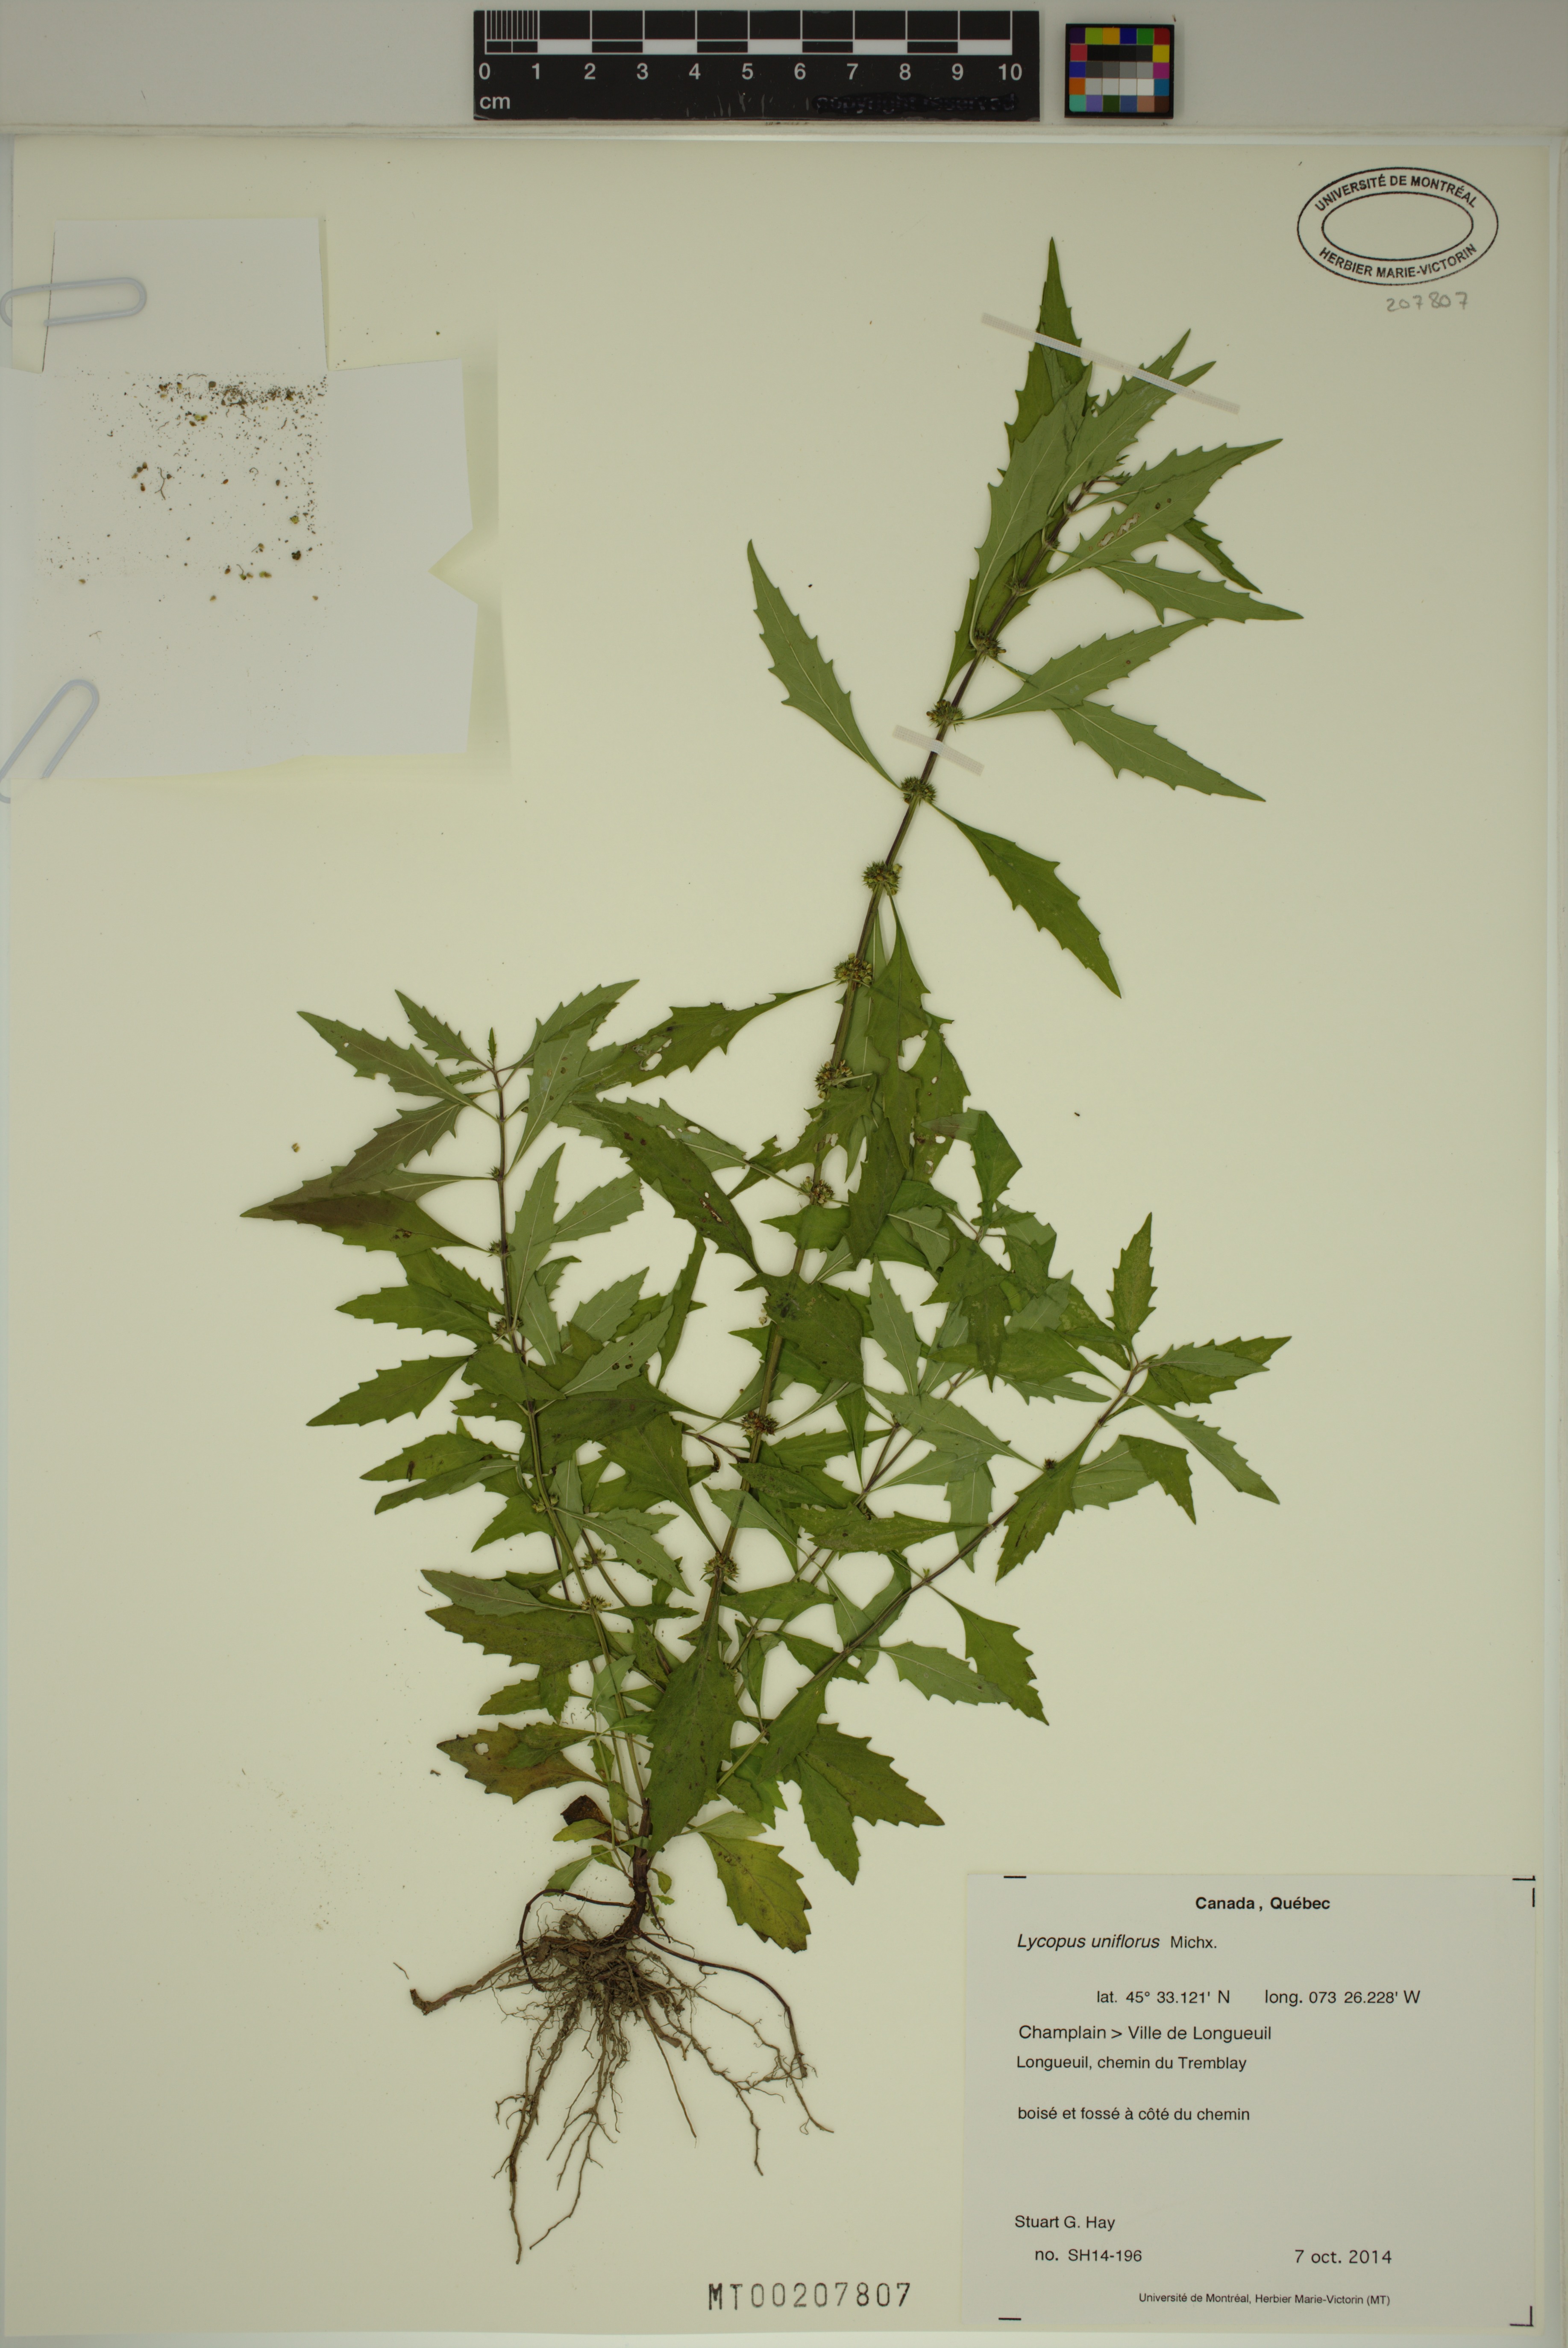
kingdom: Plantae
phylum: Tracheophyta
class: Magnoliopsida
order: Lamiales
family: Lamiaceae
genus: Lycopus
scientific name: Lycopus uniflorus
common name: Northern bugleweed
